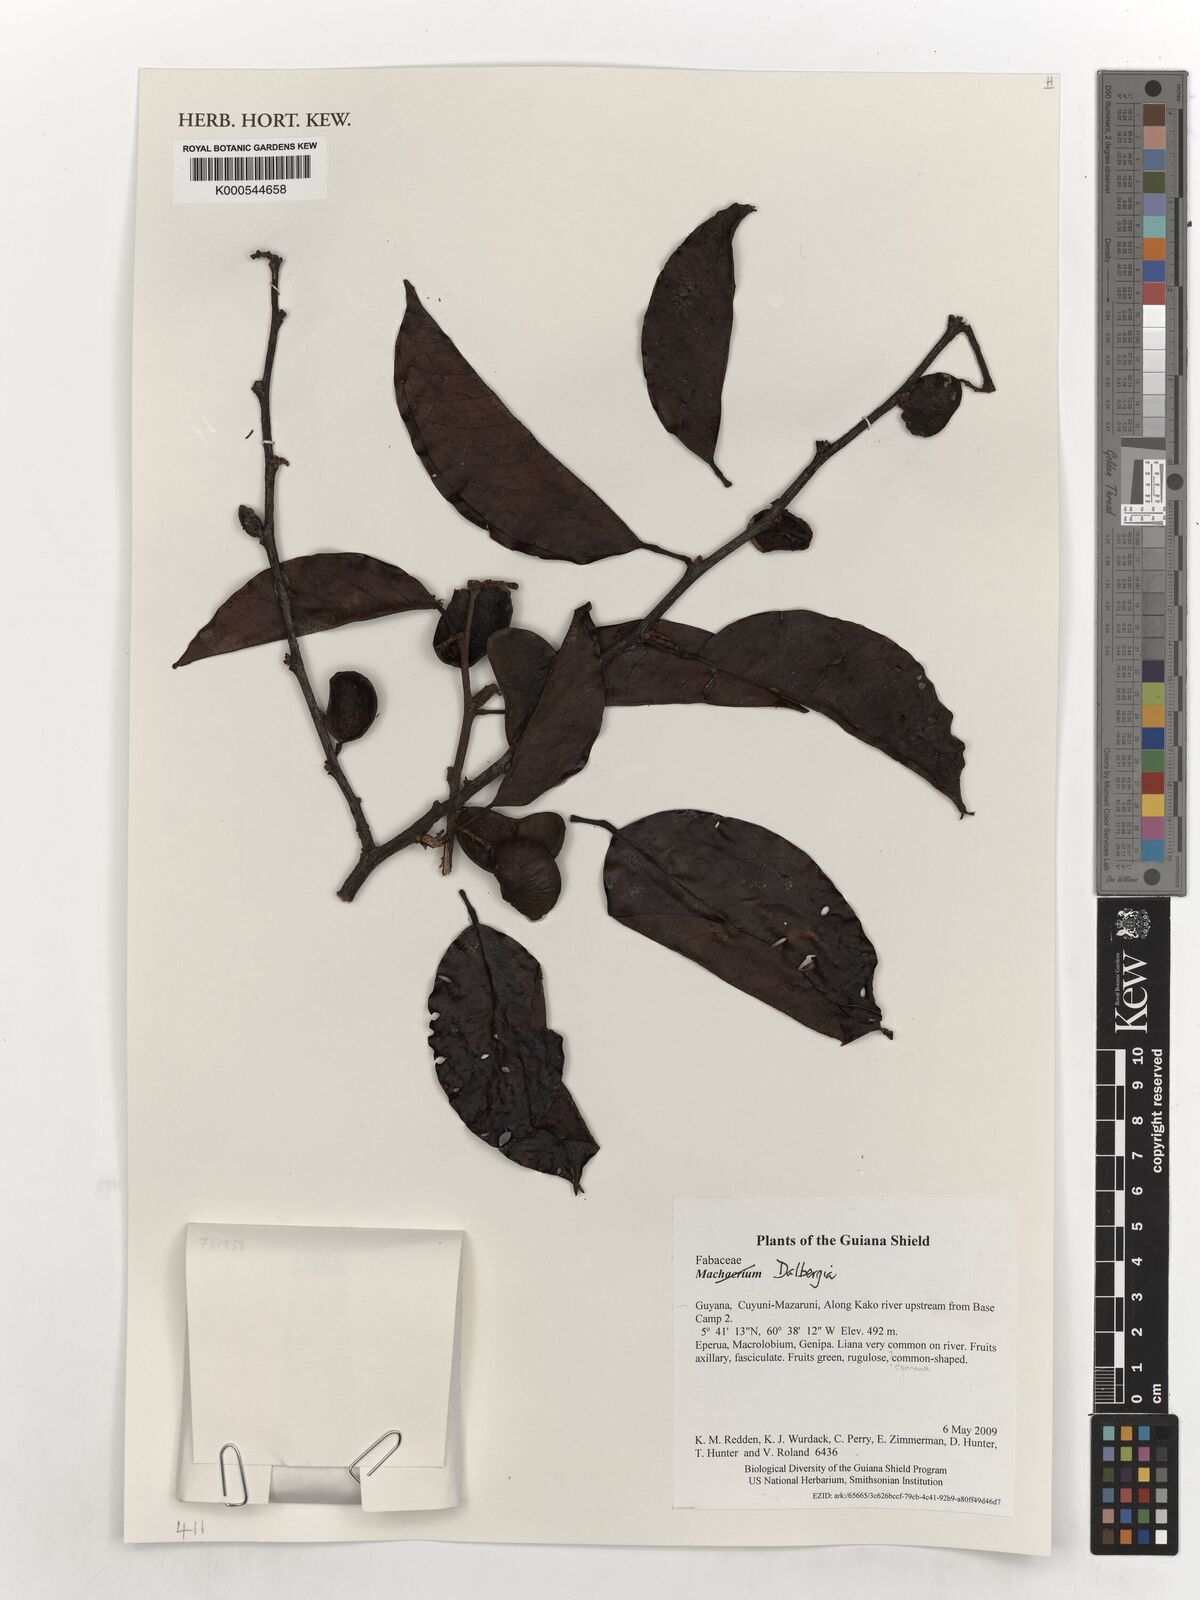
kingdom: Plantae
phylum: Tracheophyta
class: Magnoliopsida
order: Fabales
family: Fabaceae
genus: Dalbergia
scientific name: Dalbergia
